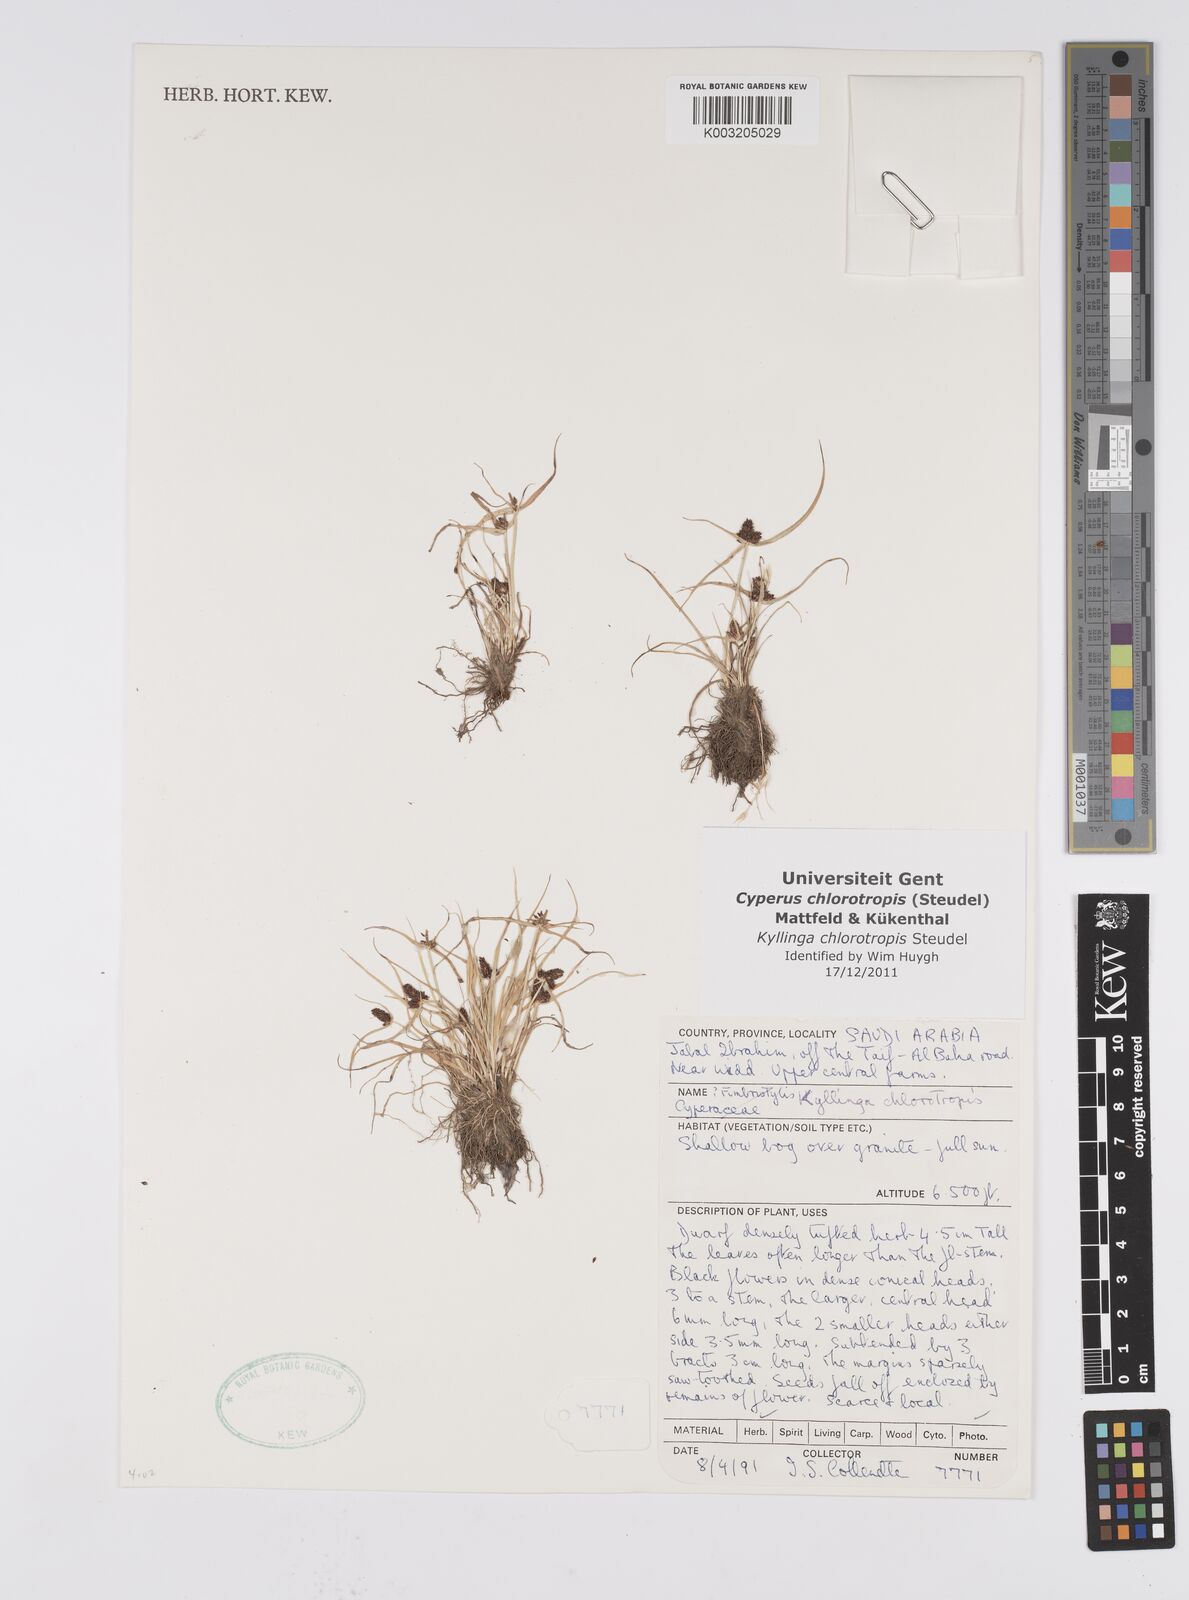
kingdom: Plantae
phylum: Tracheophyta
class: Liliopsida
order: Poales
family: Cyperaceae
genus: Cyperus
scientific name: Cyperus chlorotropis
